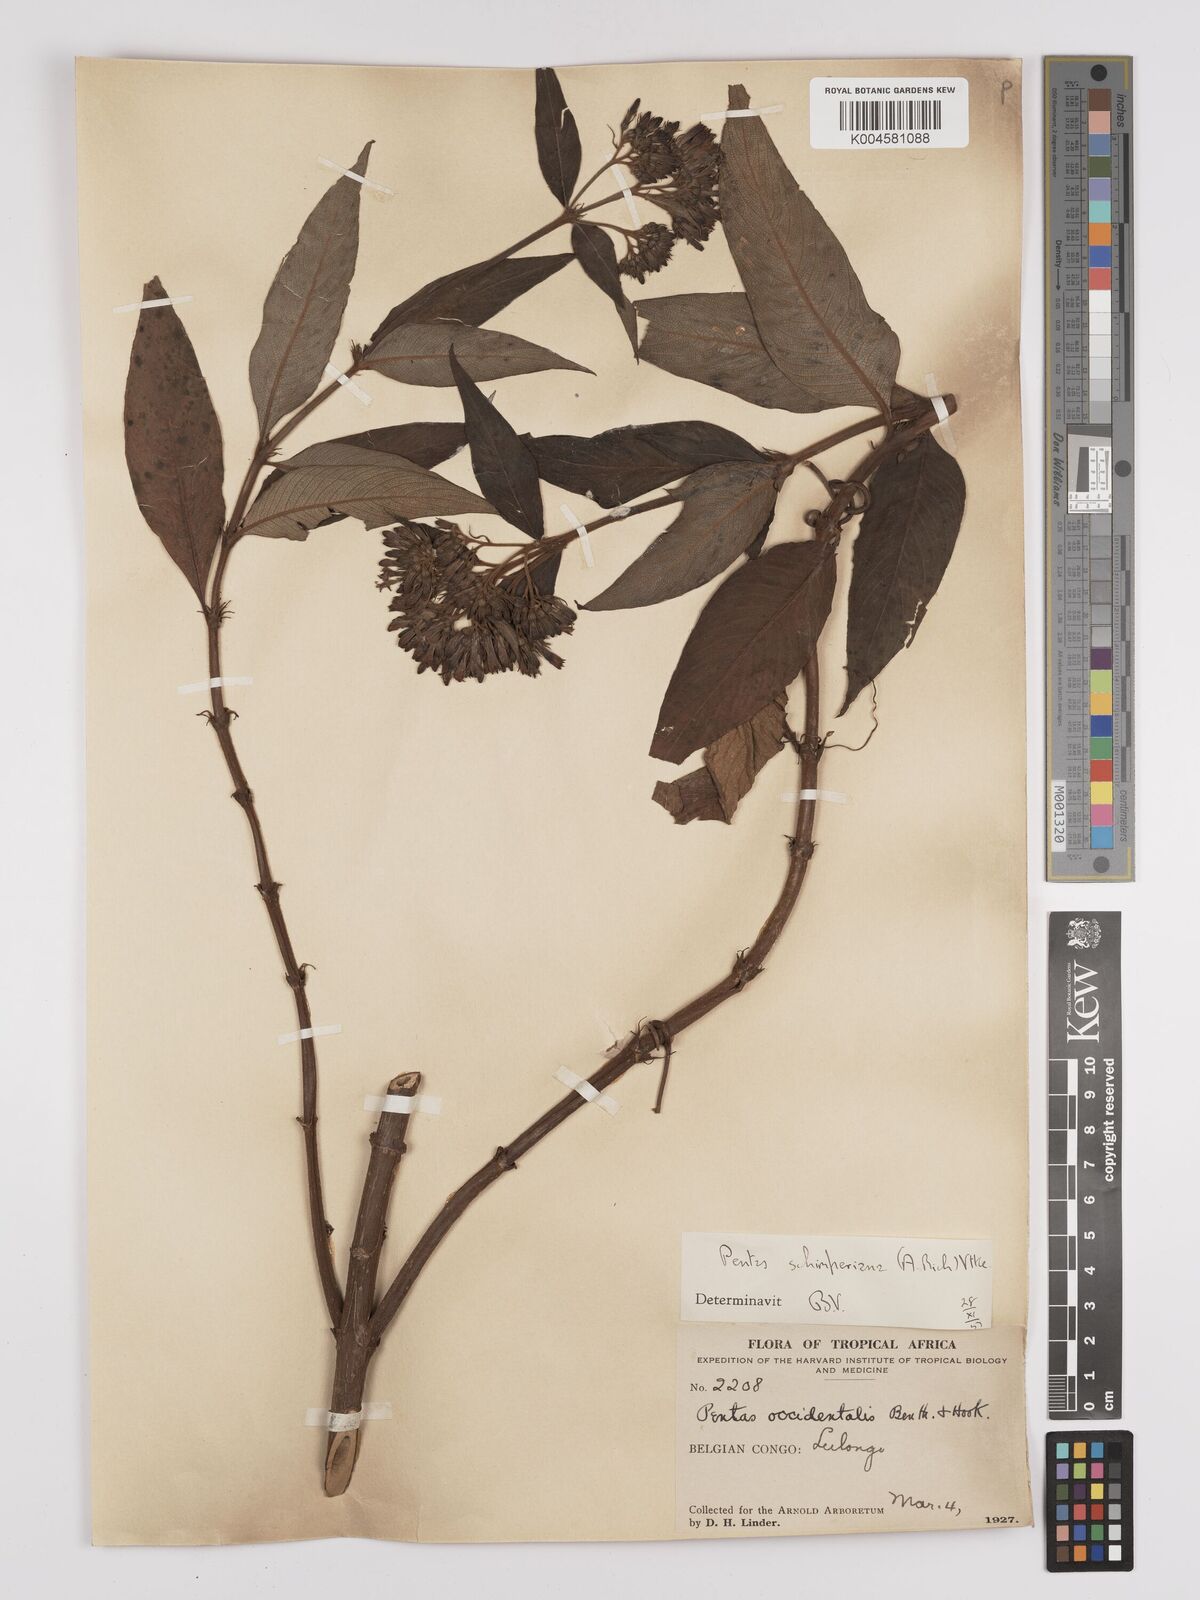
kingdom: Plantae
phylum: Tracheophyta
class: Magnoliopsida
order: Gentianales
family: Rubiaceae
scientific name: Rubiaceae
